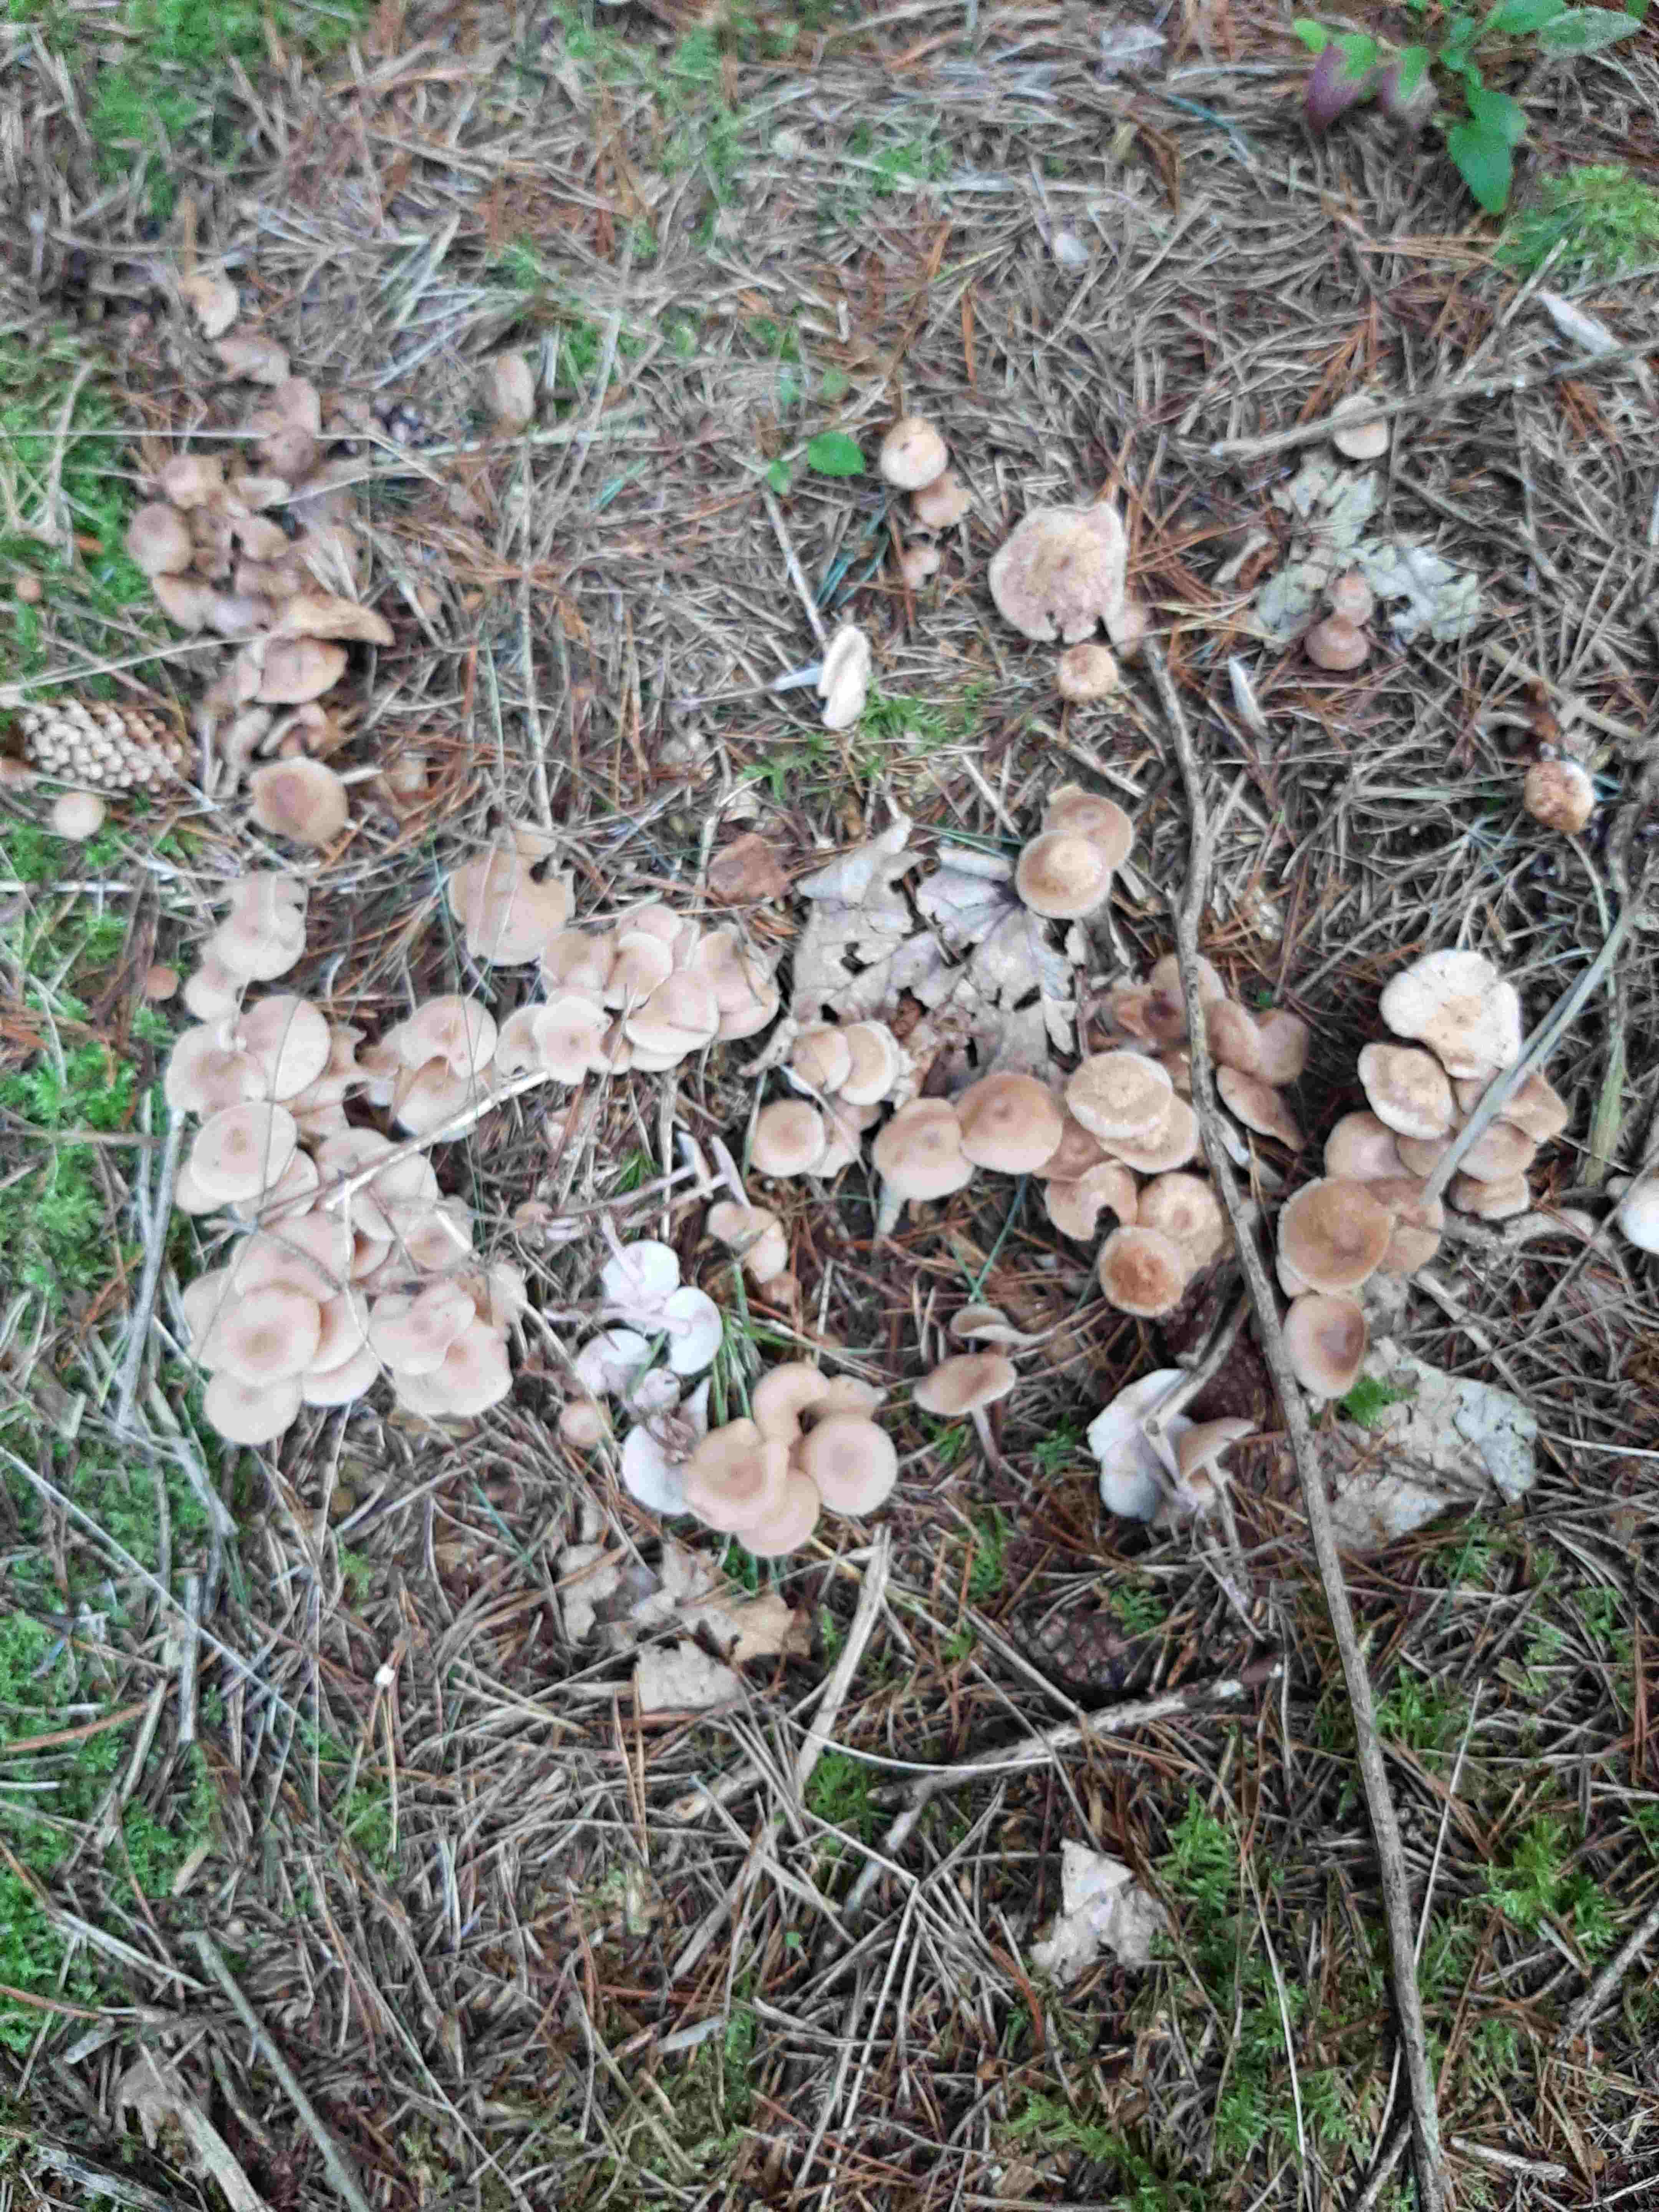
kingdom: Fungi
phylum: Basidiomycota
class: Agaricomycetes
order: Agaricales
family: Omphalotaceae
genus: Gymnopus
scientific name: Gymnopus
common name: fladhat
